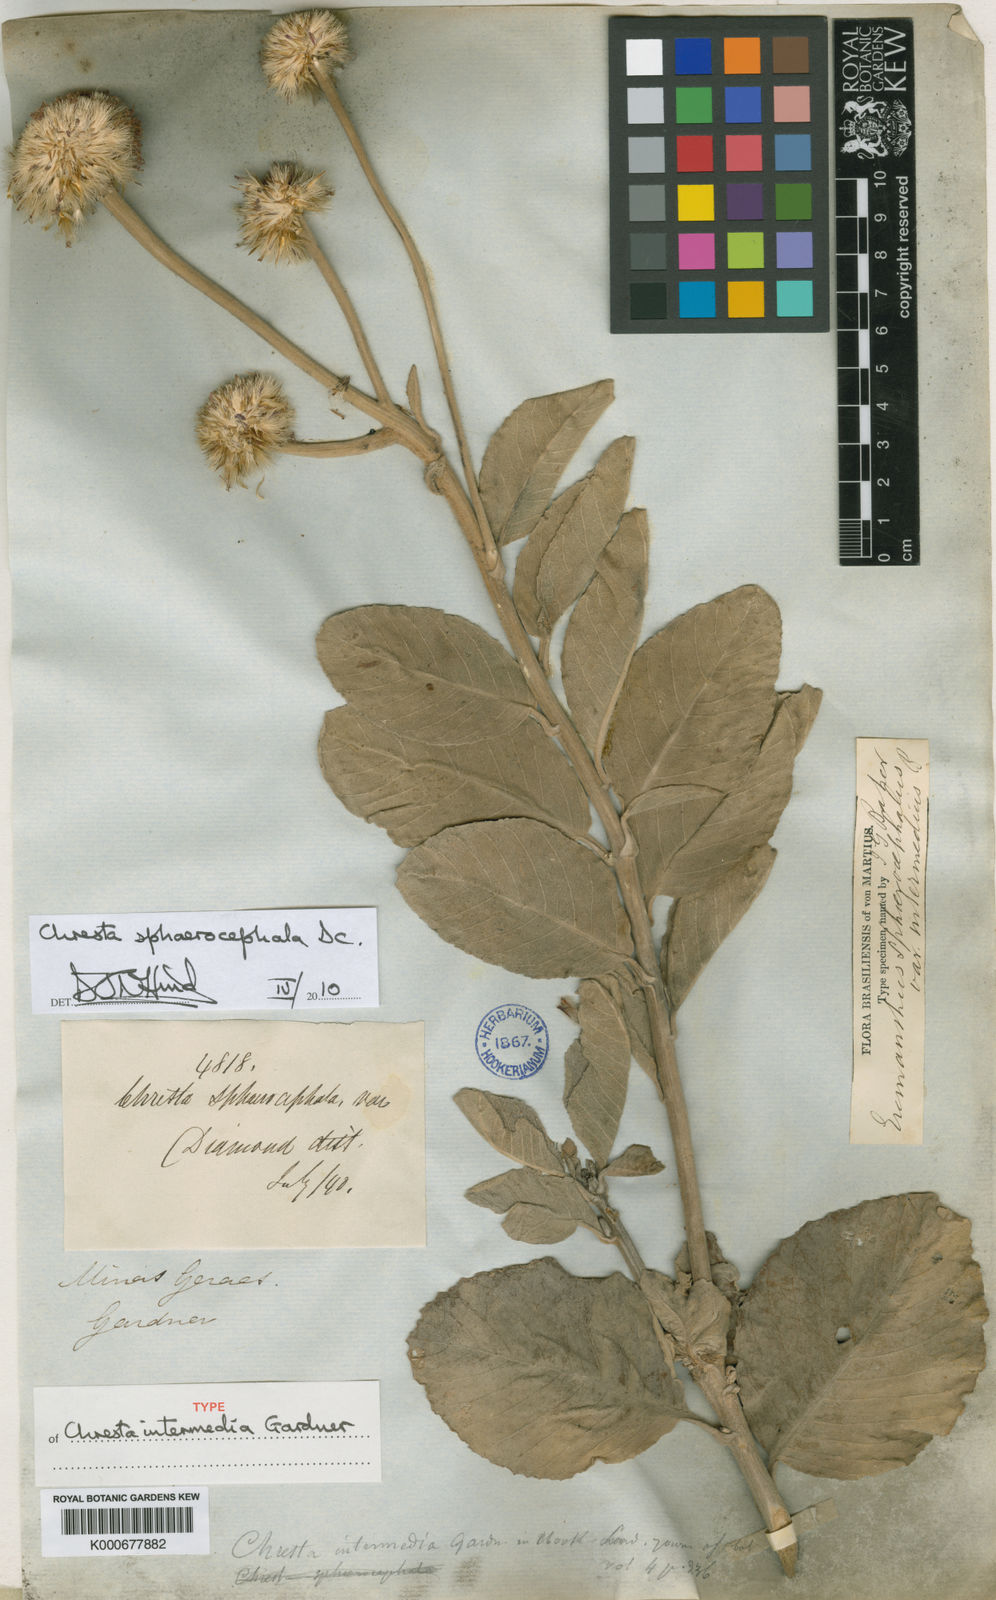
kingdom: Plantae
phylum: Tracheophyta
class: Magnoliopsida
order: Asterales
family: Asteraceae
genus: Chresta
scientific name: Chresta sphaerocephala
